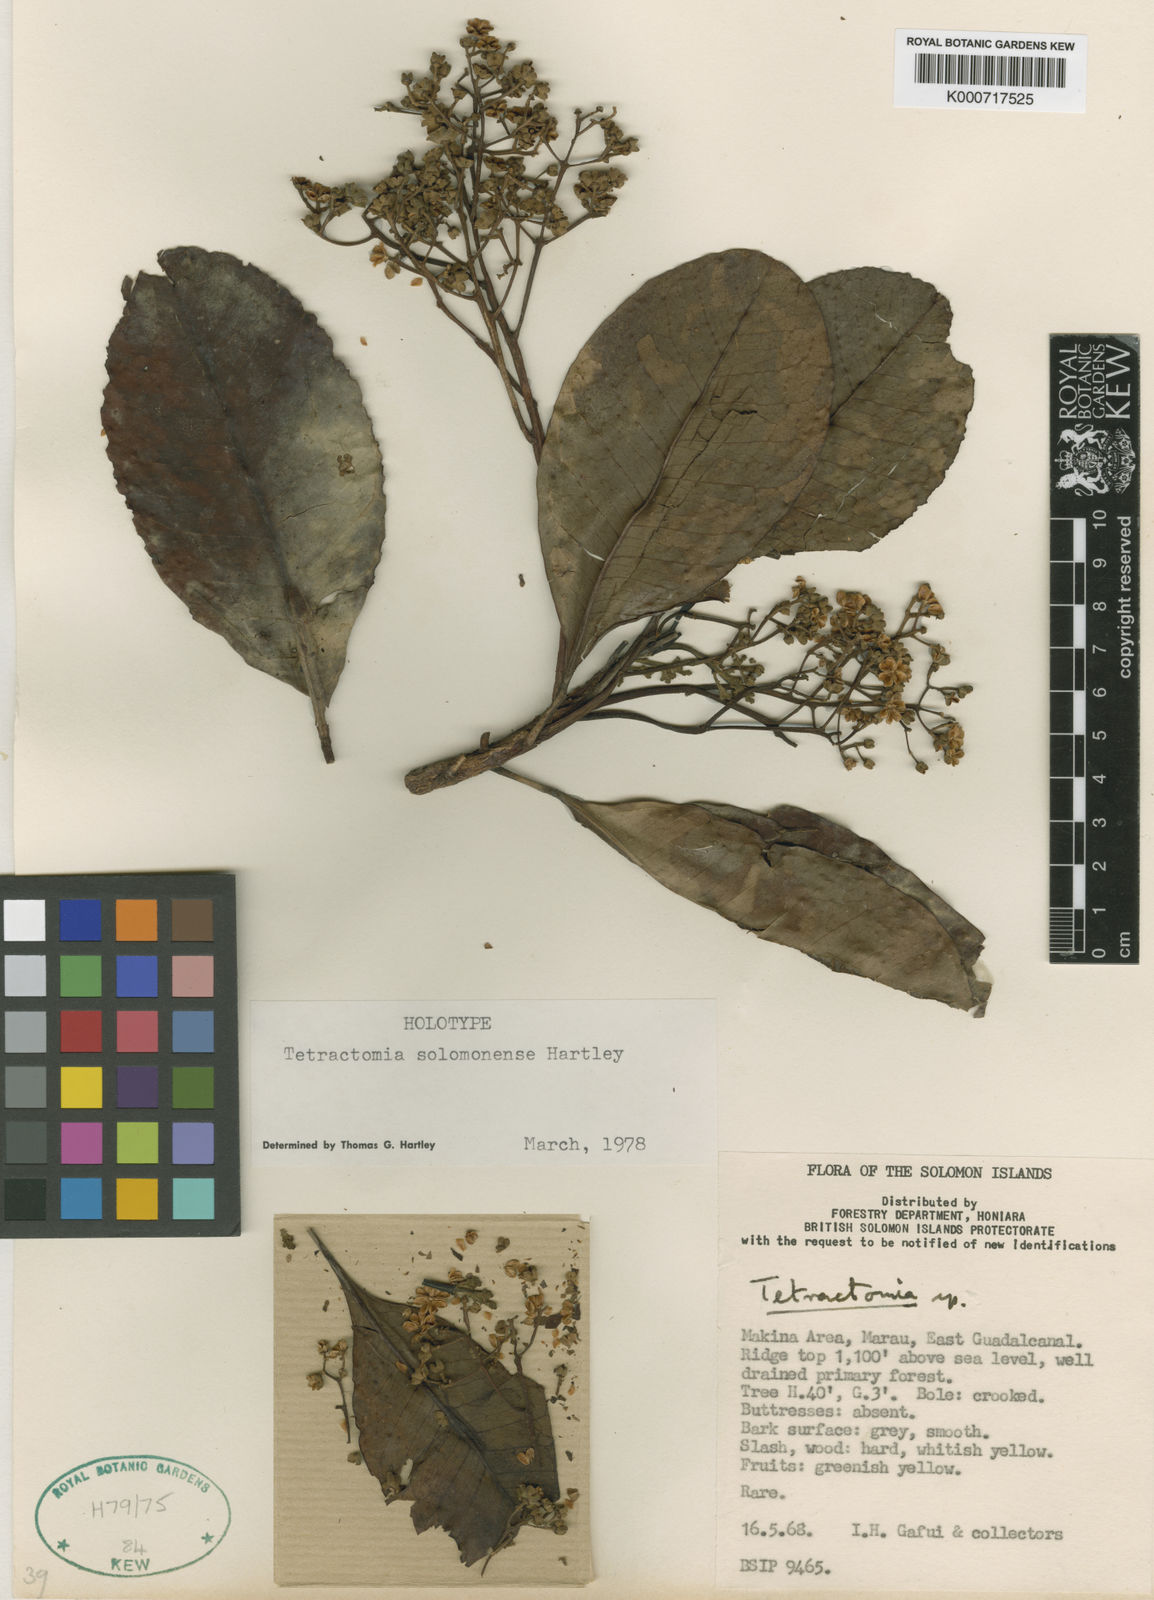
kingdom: Plantae
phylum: Tracheophyta
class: Magnoliopsida
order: Sapindales
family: Rutaceae
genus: Tetractomia
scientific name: Tetractomia solomonense
